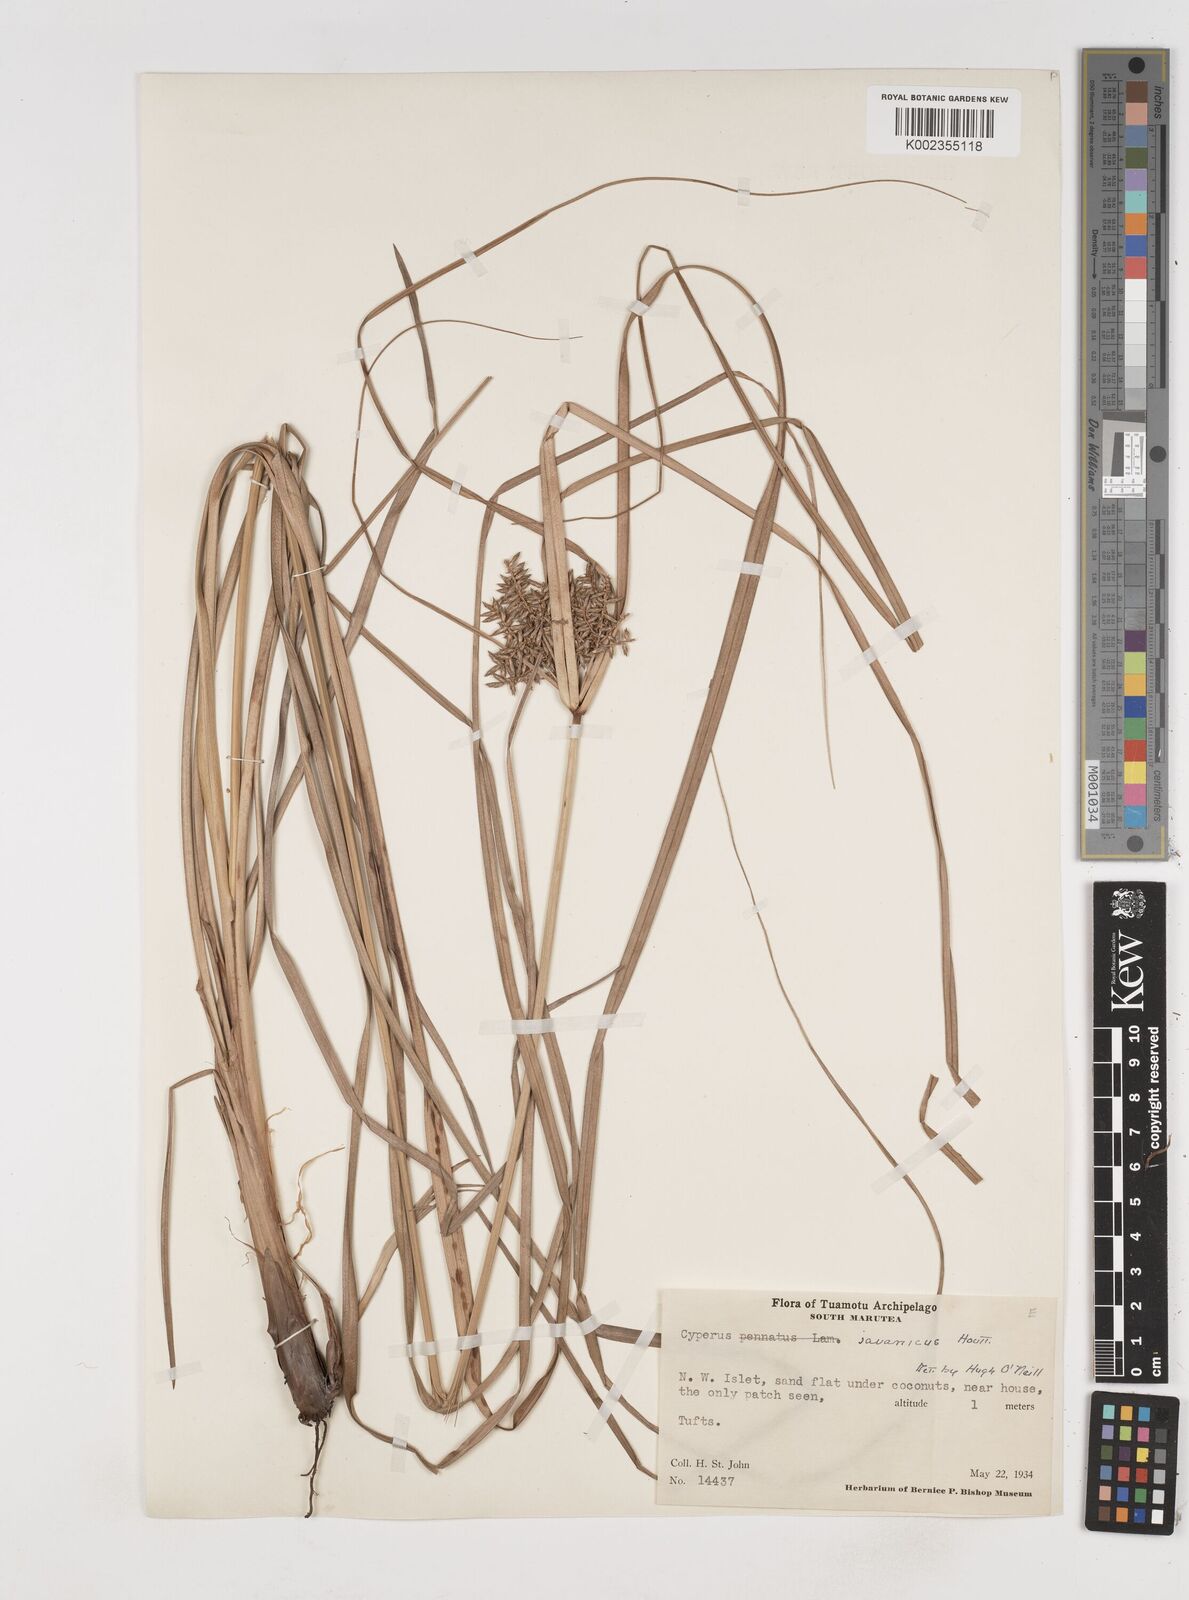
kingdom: Plantae
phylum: Tracheophyta
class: Liliopsida
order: Poales
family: Cyperaceae
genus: Cyperus
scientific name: Cyperus javanicus
